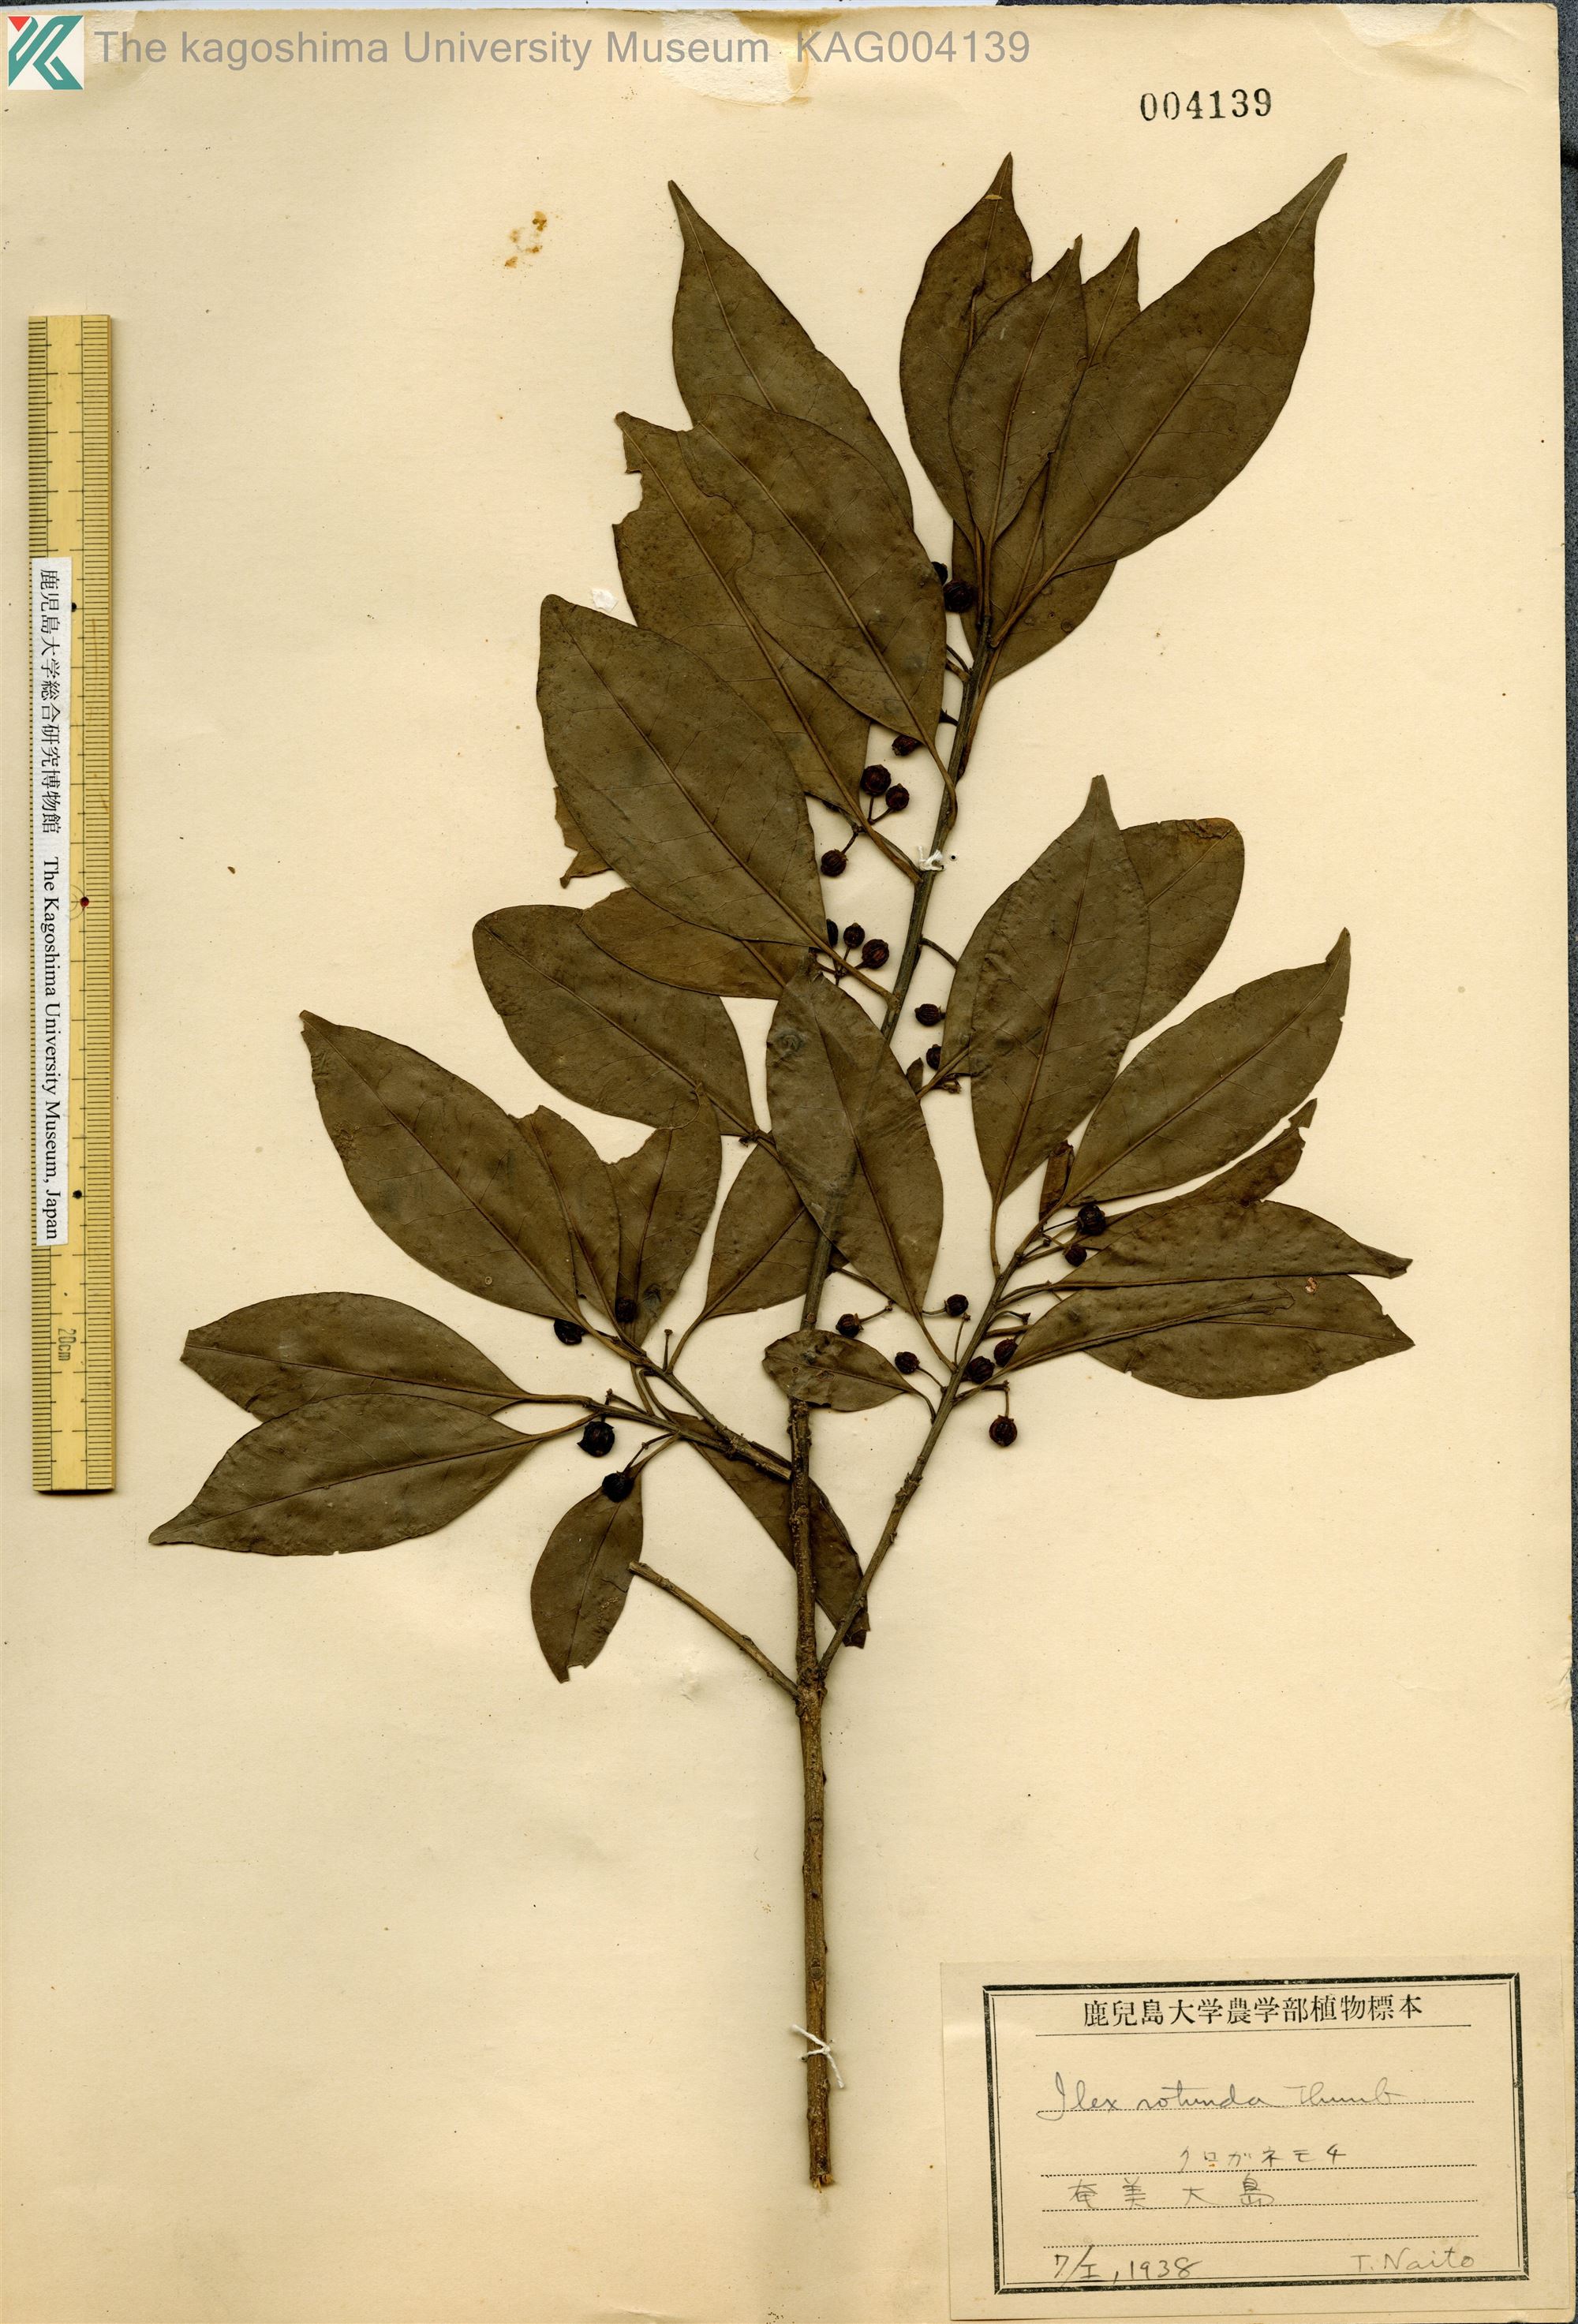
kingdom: Plantae
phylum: Tracheophyta
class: Magnoliopsida
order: Aquifoliales
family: Aquifoliaceae
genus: Ilex
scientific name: Ilex rotunda
